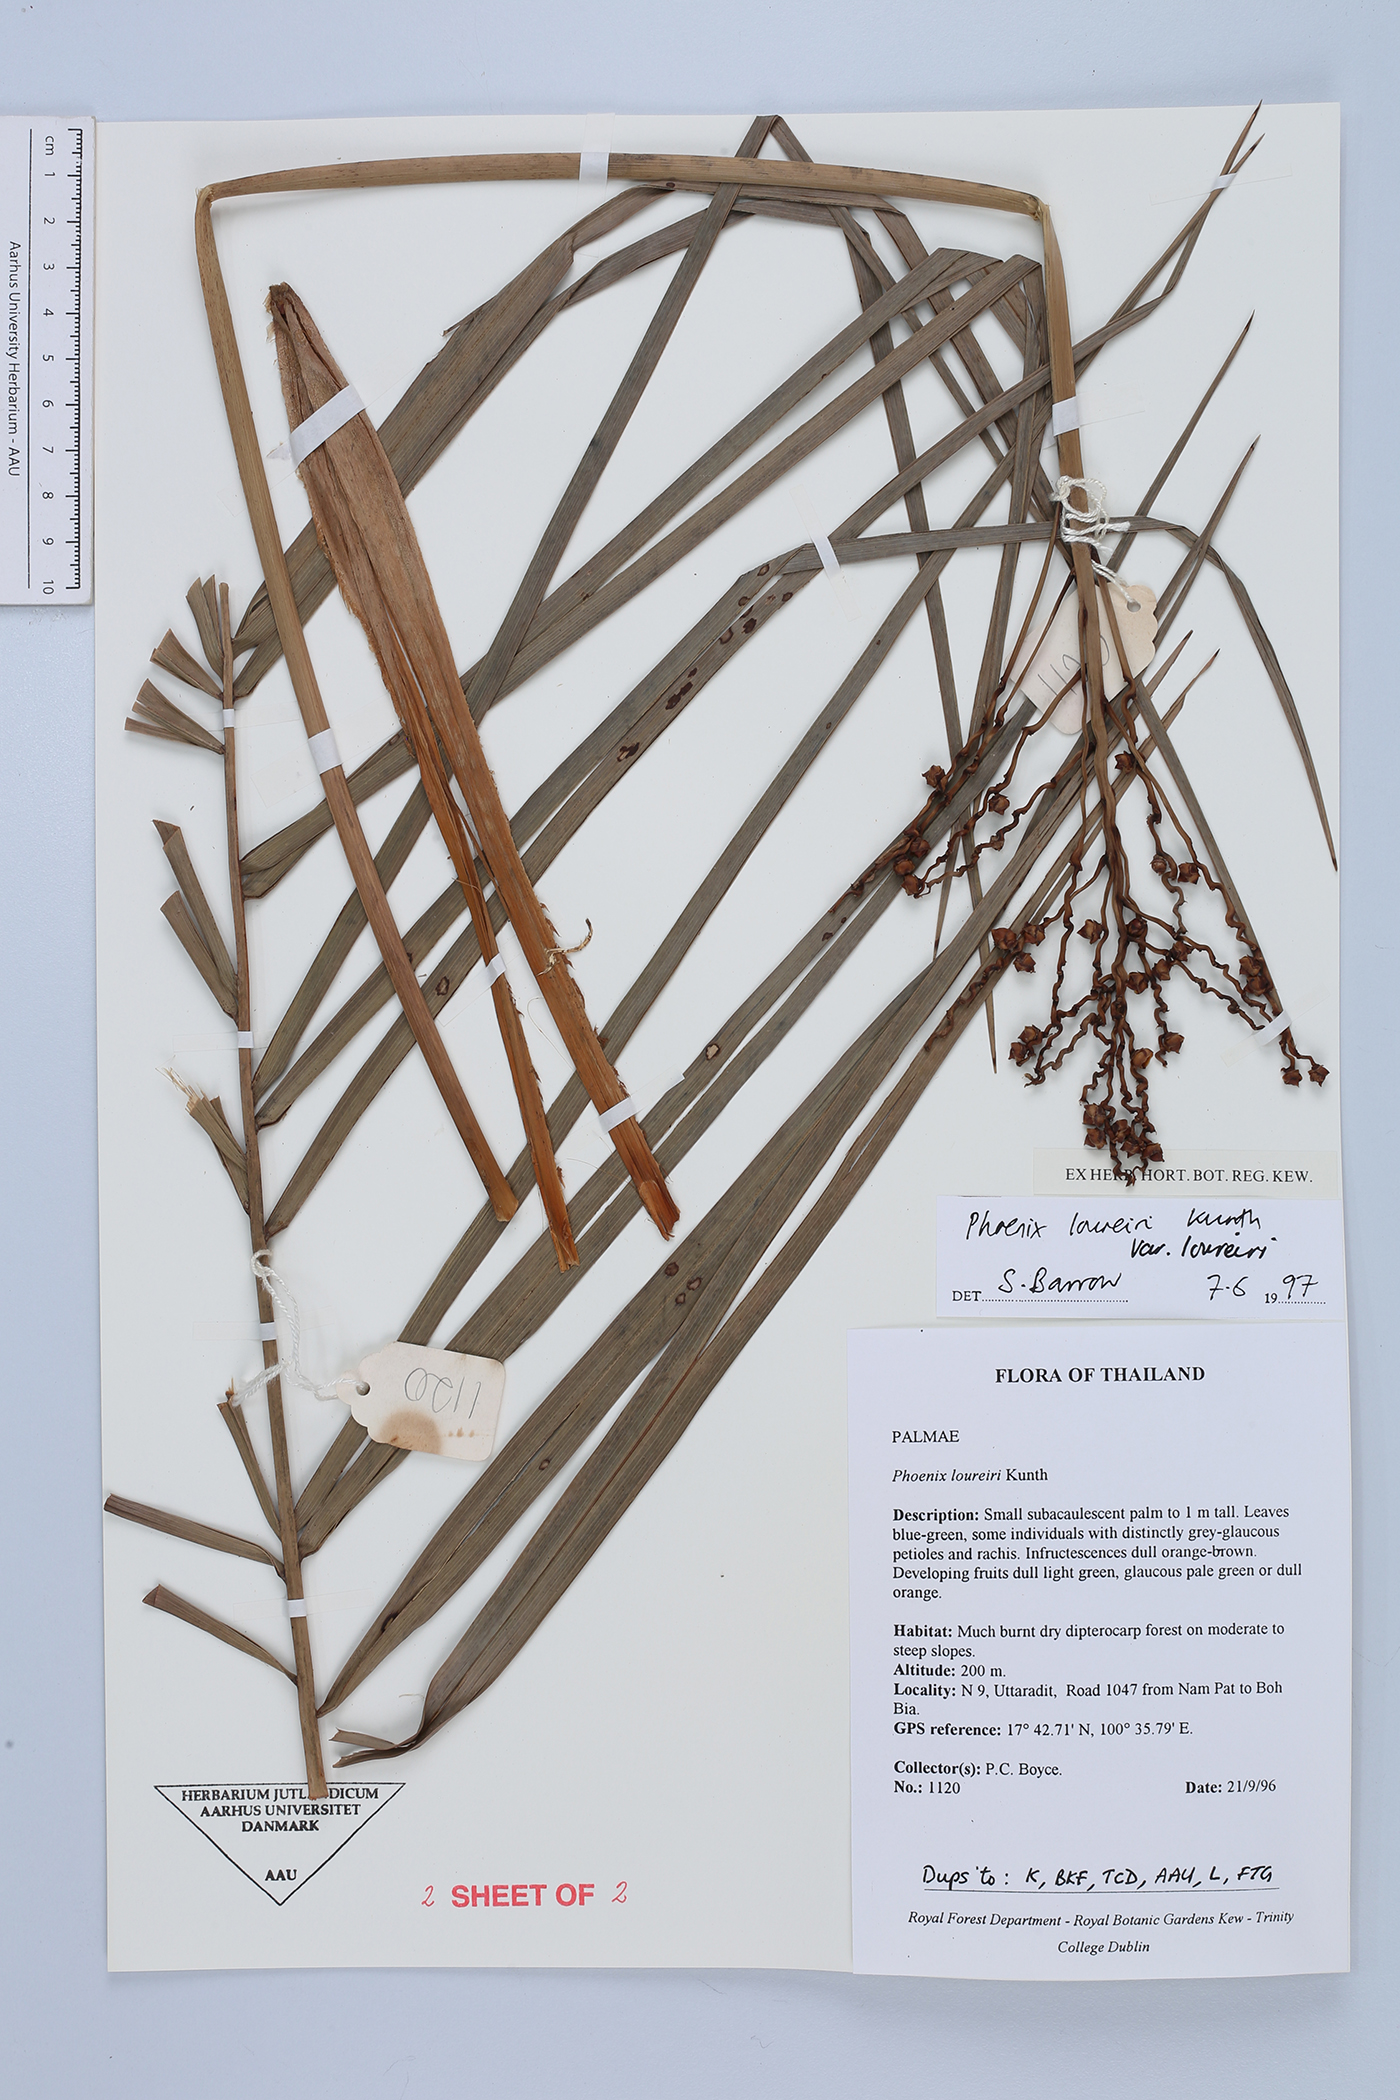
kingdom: Plantae
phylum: Tracheophyta
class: Liliopsida
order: Arecales
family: Arecaceae
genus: Phoenix
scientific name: Phoenix loureiroi
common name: Loureiro's palm
